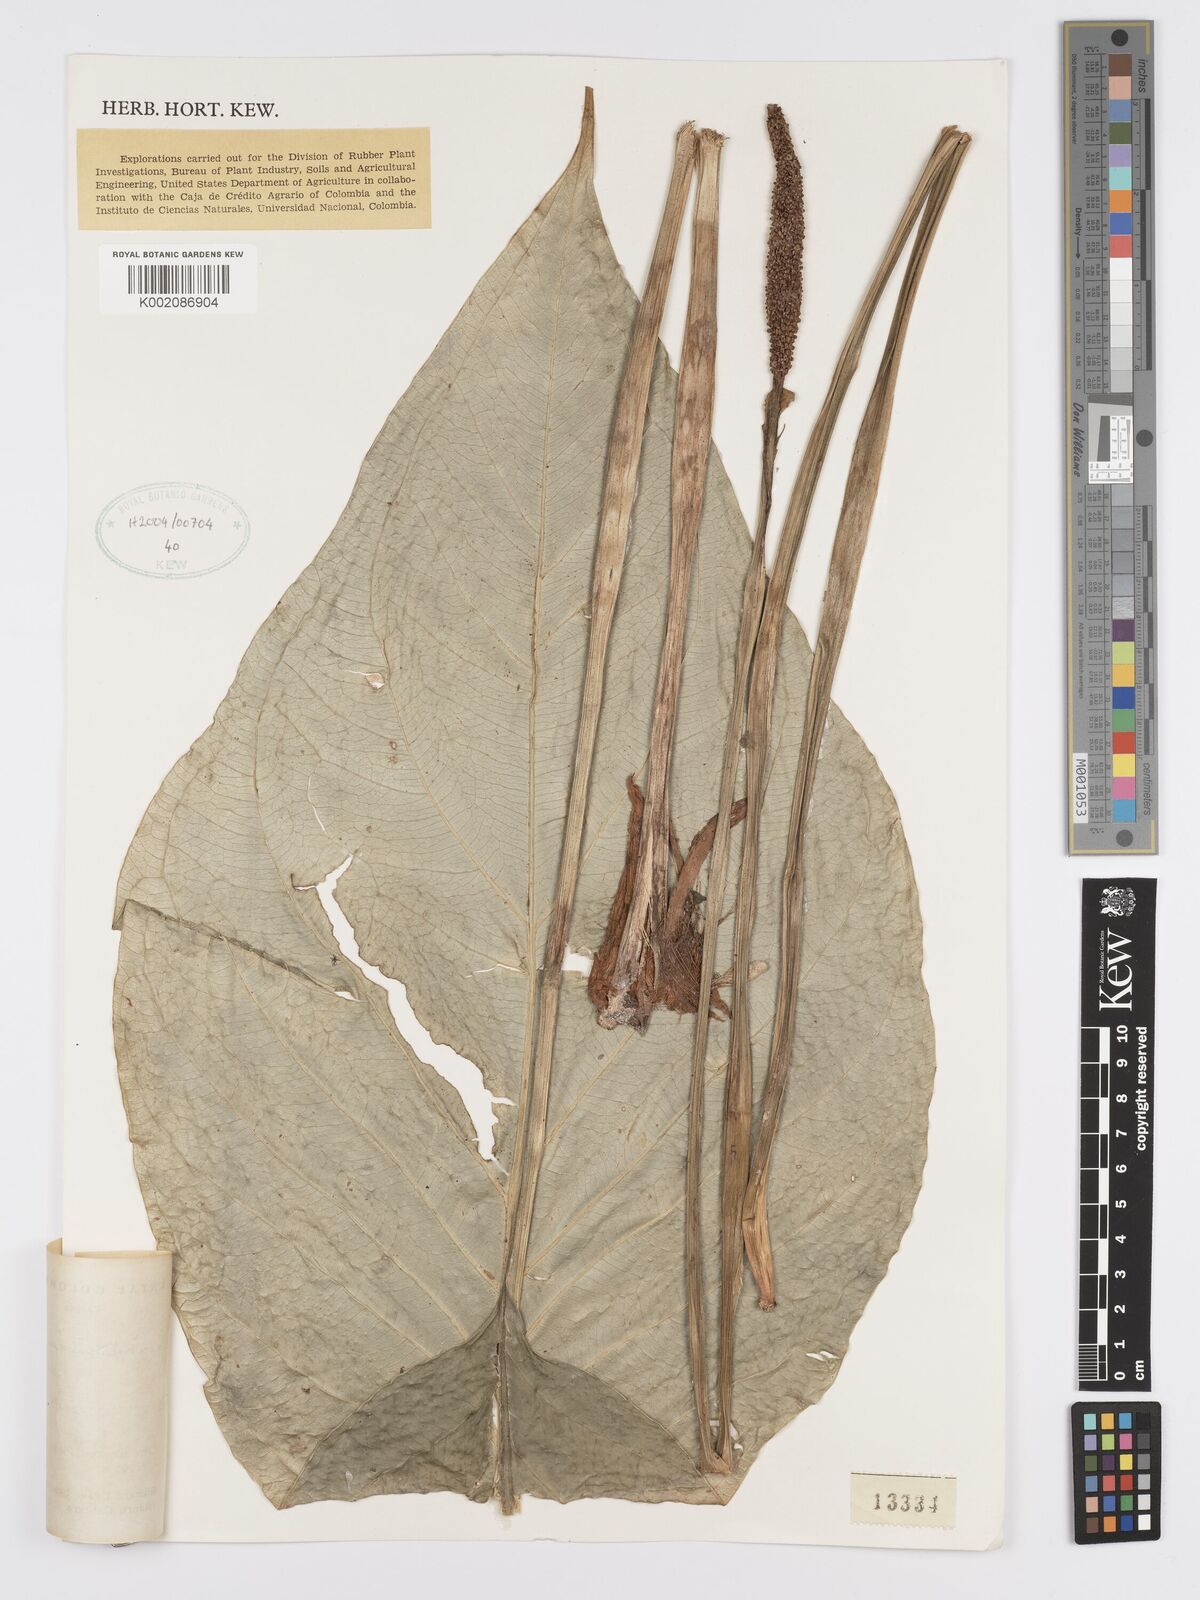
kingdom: Plantae
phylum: Tracheophyta
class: Liliopsida
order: Alismatales
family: Araceae
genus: Anthurium
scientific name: Anthurium remotigeniculatum
